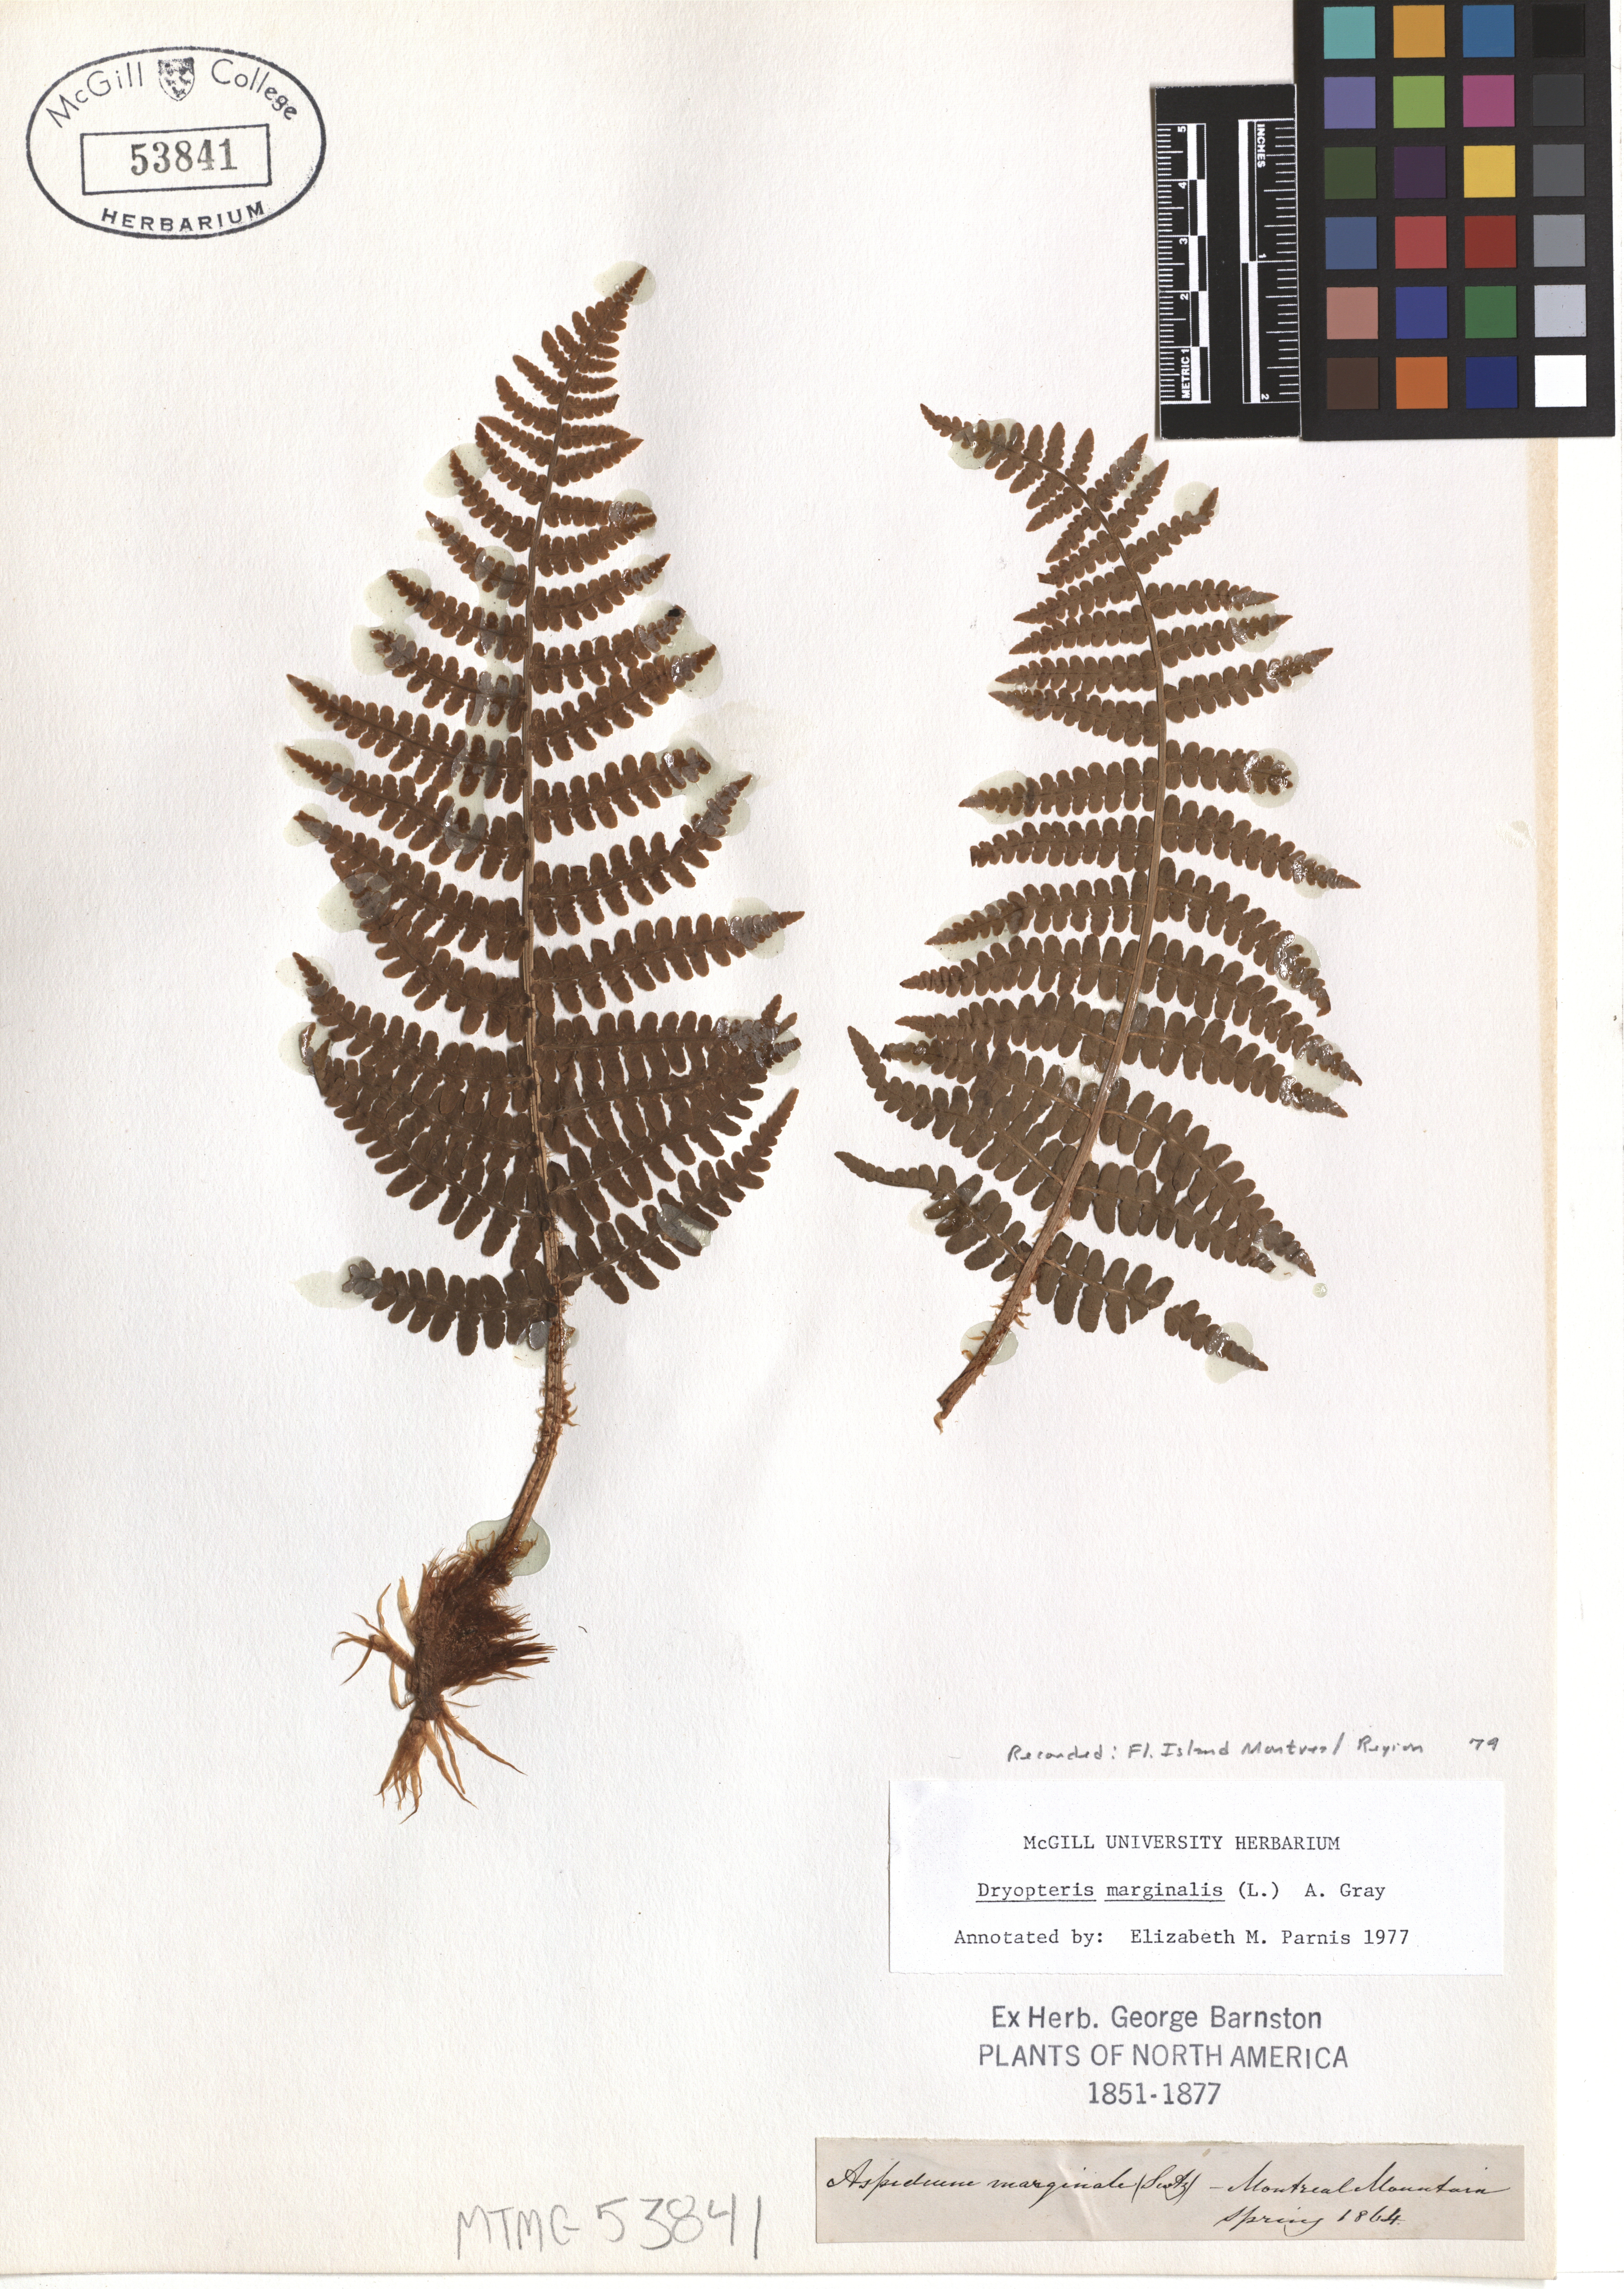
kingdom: Plantae
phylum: Tracheophyta
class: Polypodiopsida
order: Polypodiales
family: Dryopteridaceae
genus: Dryopteris
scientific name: Dryopteris marginalis
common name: Marginal wood fern
